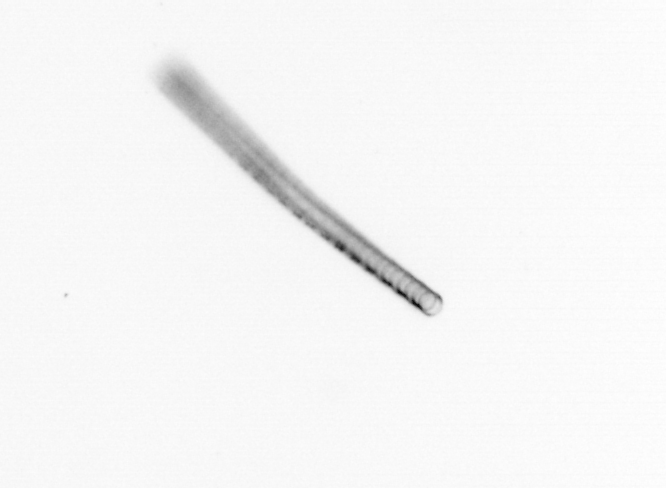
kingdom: Chromista
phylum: Ochrophyta
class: Bacillariophyceae
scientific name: Bacillariophyceae
